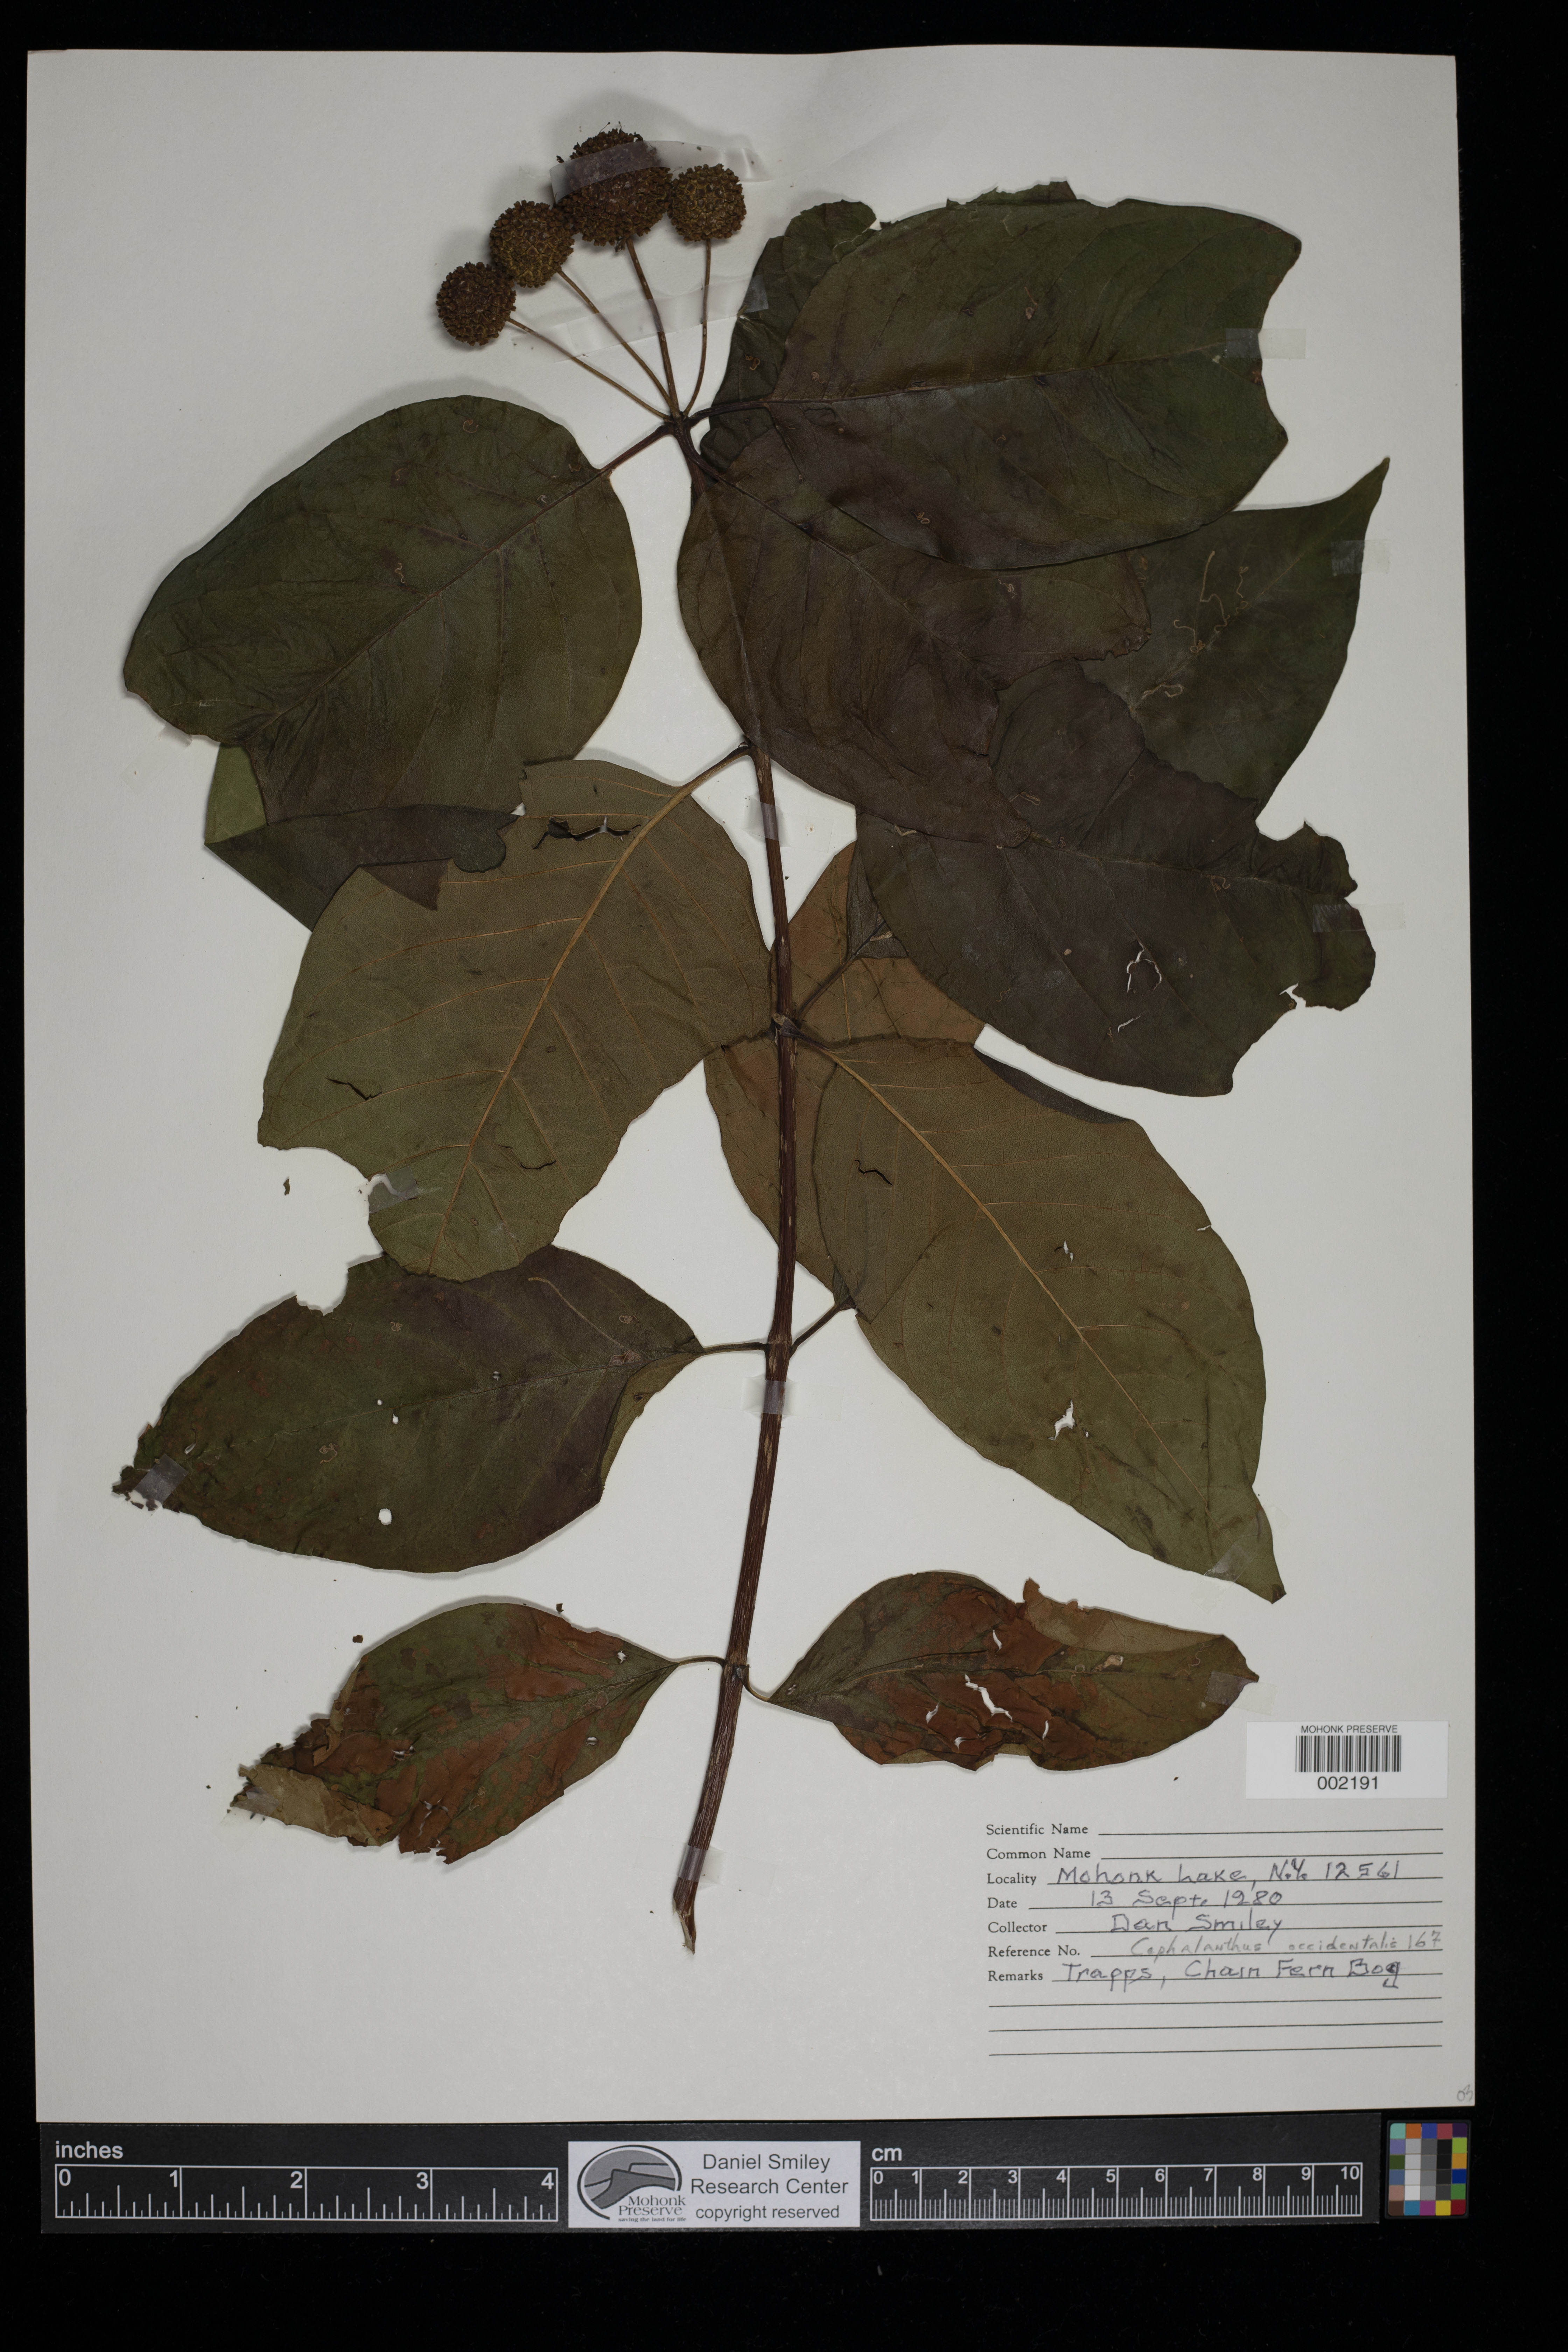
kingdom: Plantae
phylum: Tracheophyta
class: Magnoliopsida
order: Gentianales
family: Rubiaceae
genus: Cephalanthus
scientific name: Cephalanthus occidentalis
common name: Button-willow
